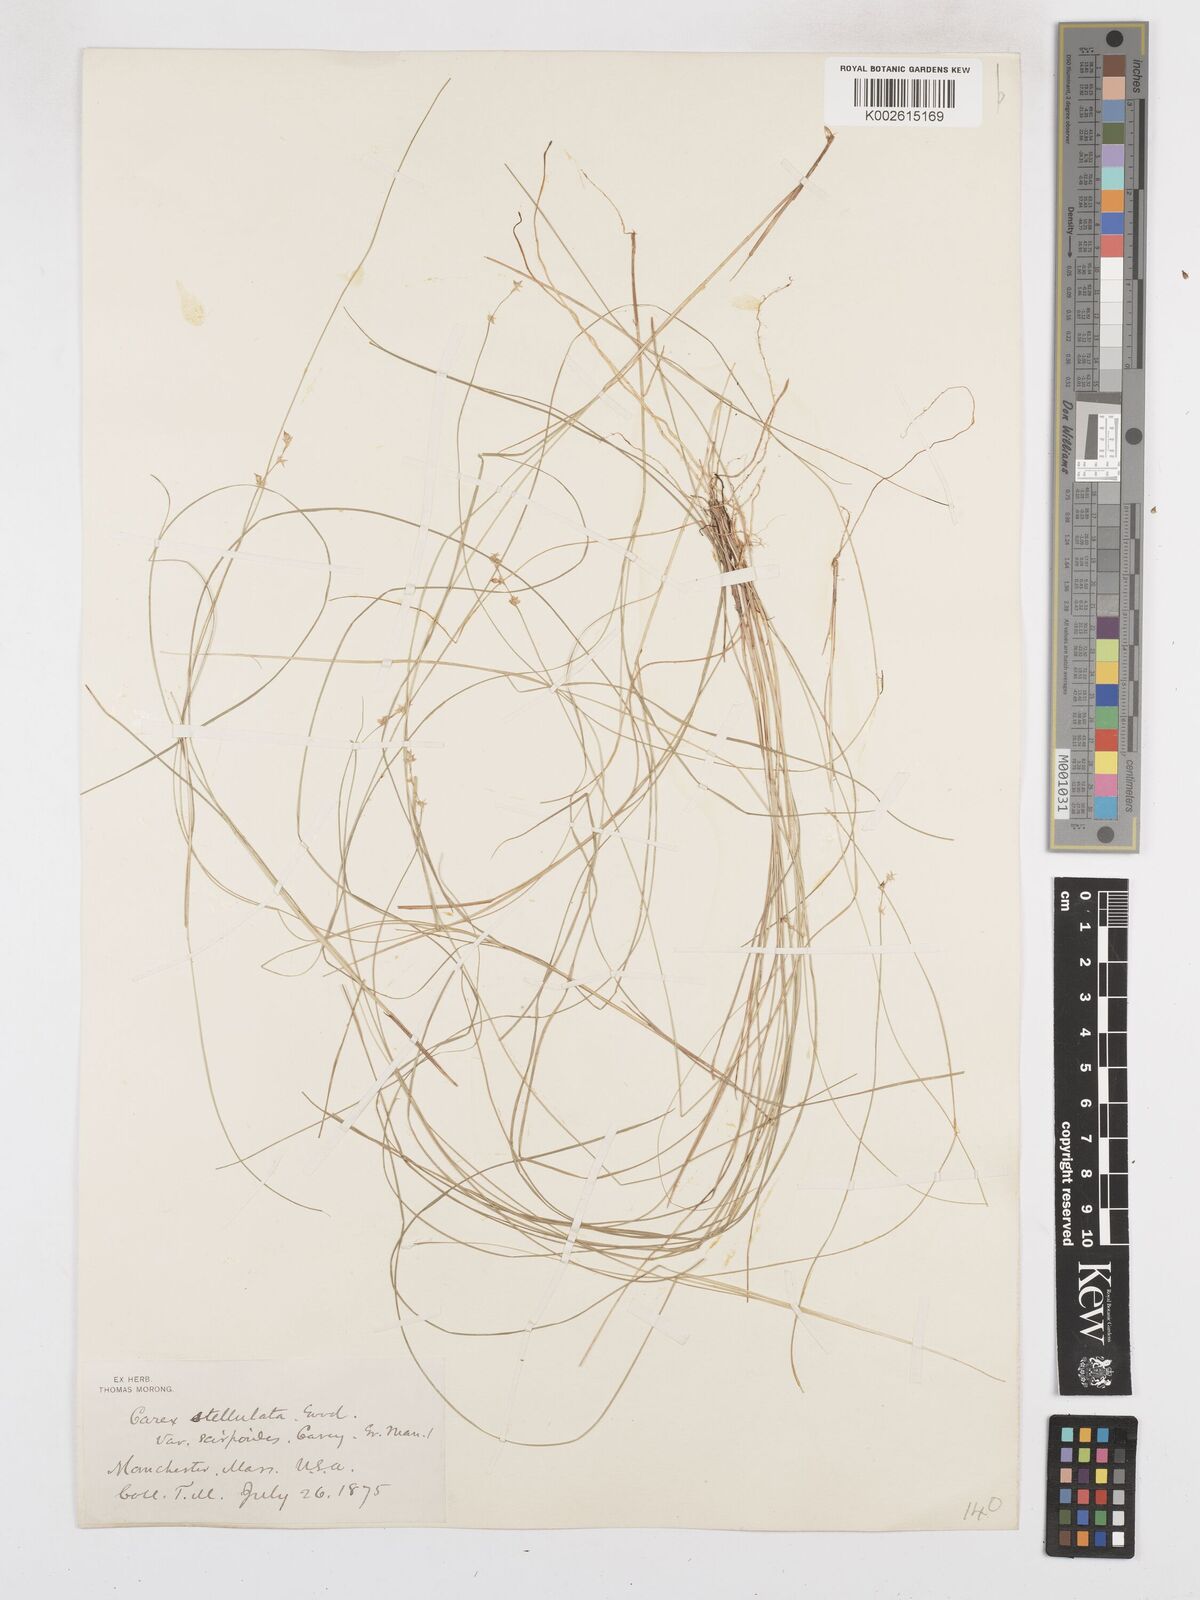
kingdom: Plantae
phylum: Tracheophyta
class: Liliopsida
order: Poales
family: Cyperaceae
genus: Carex
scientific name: Carex echinata
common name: Star sedge
